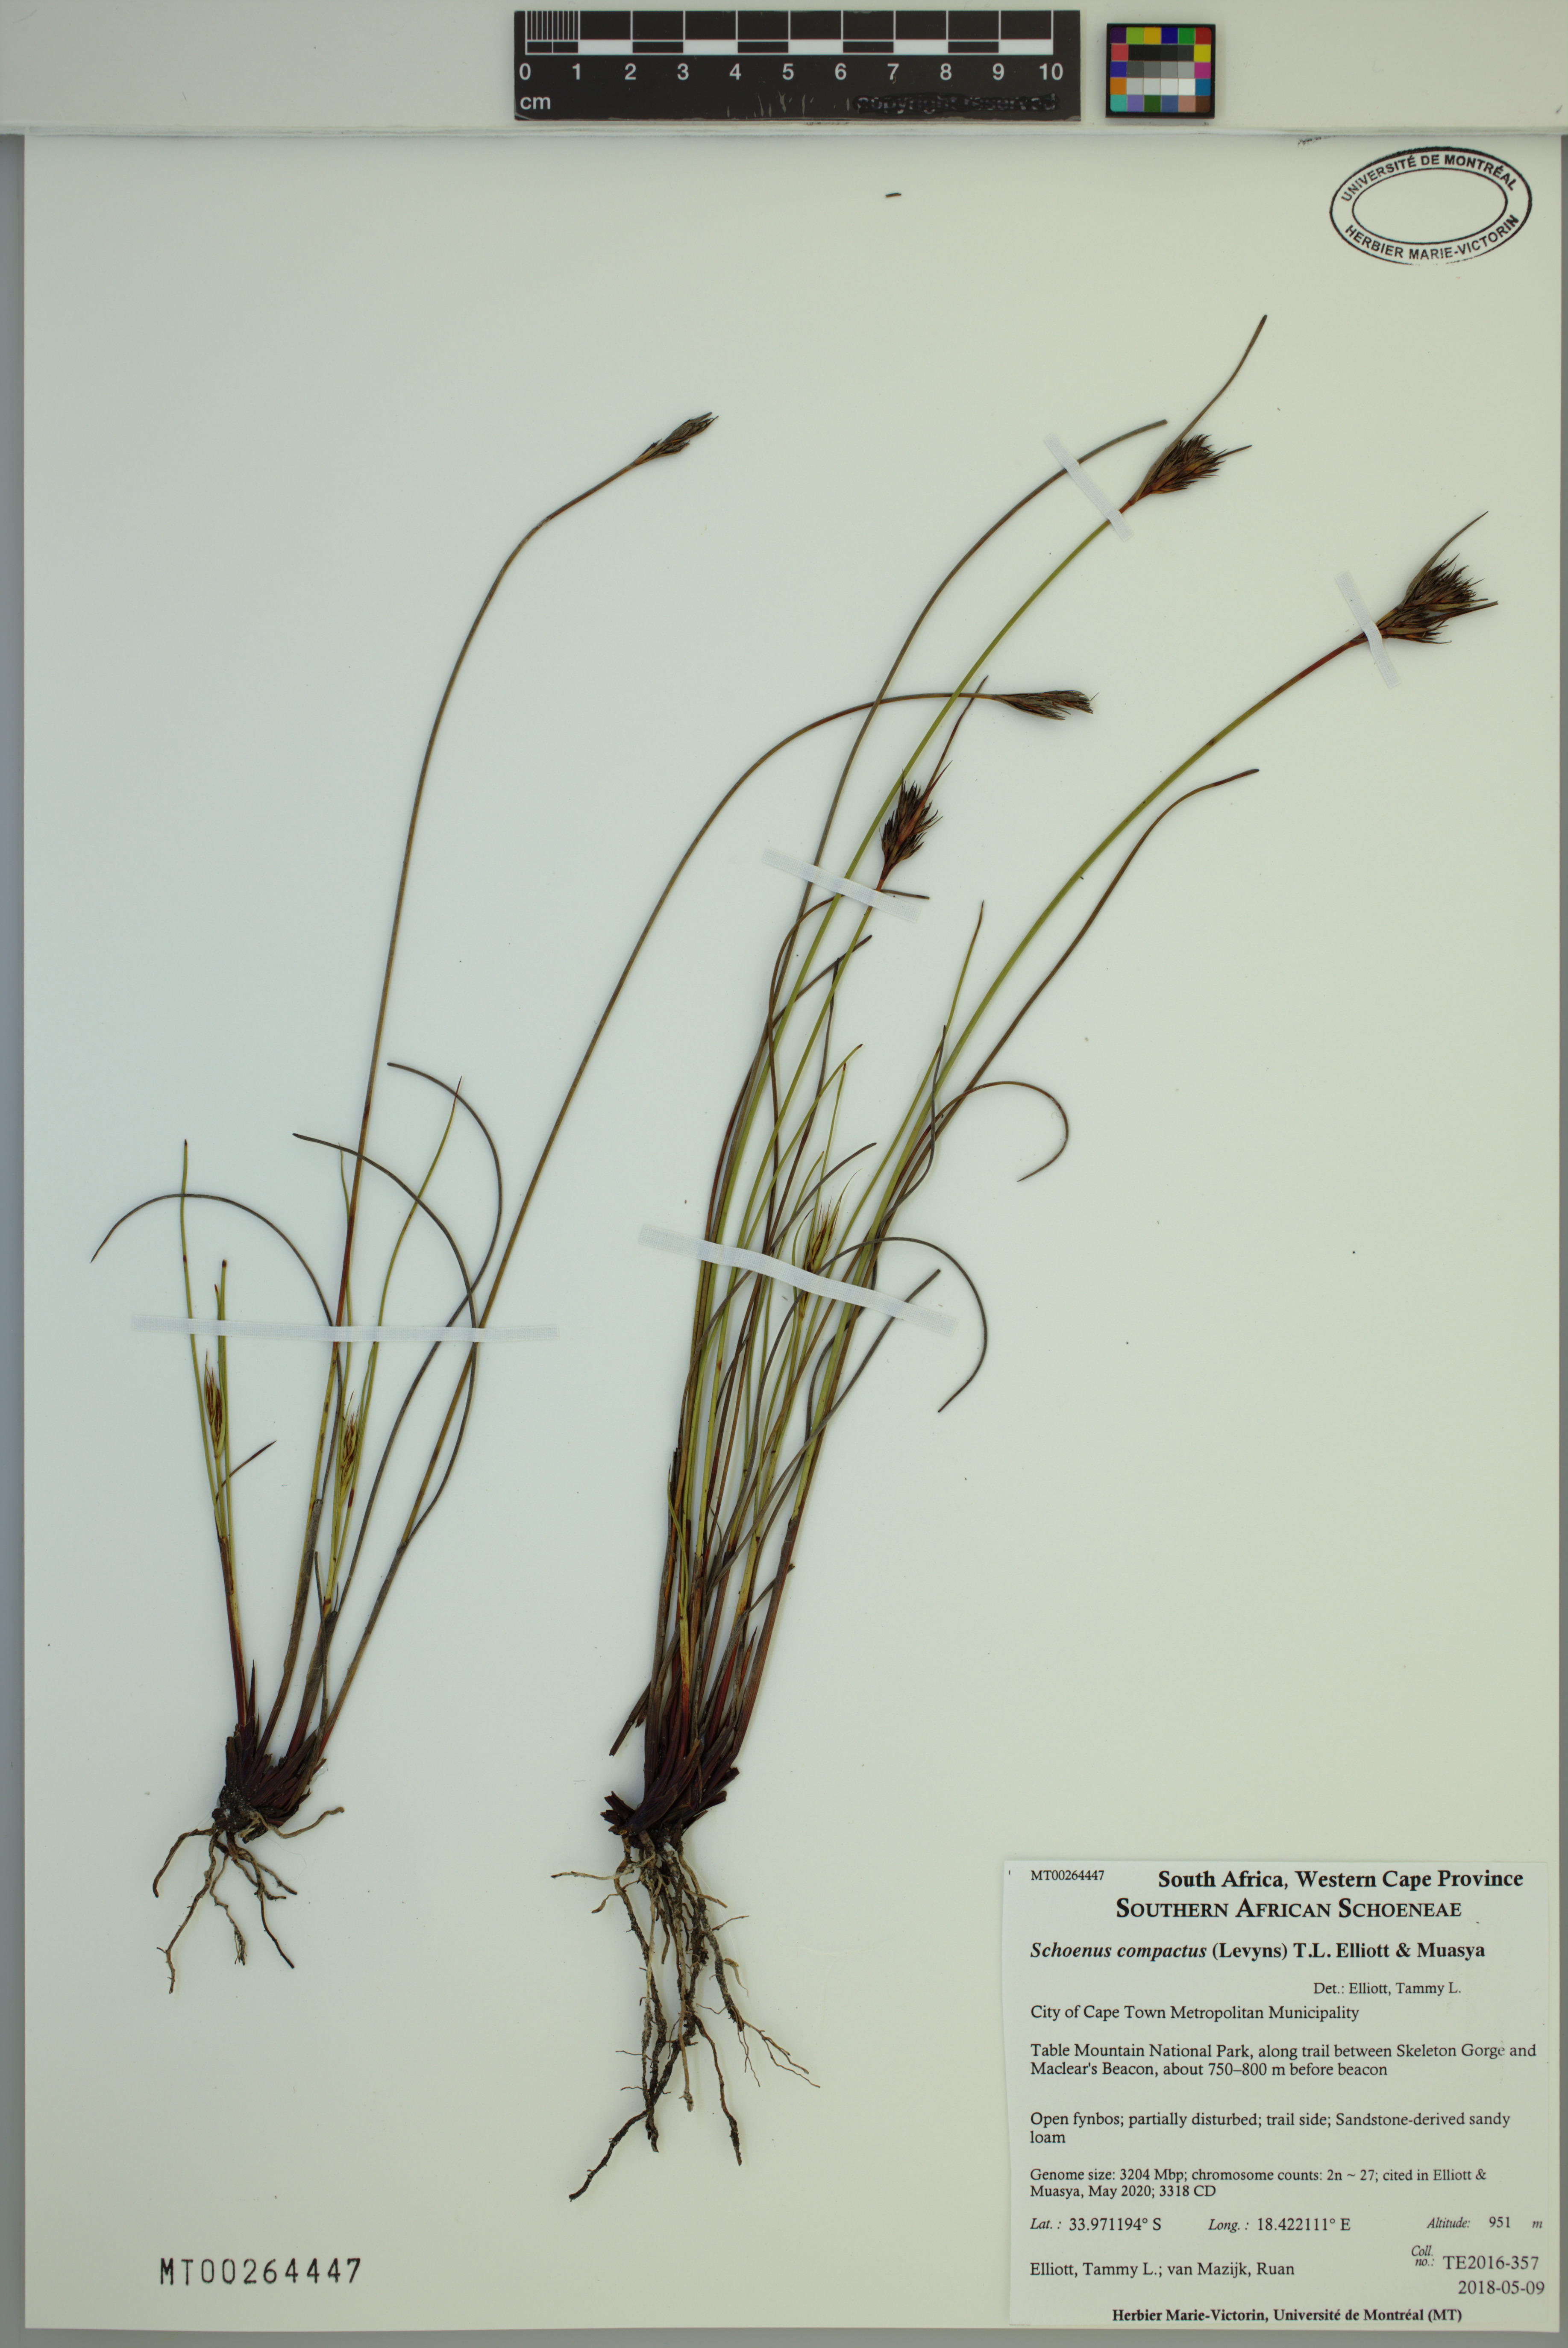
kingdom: Plantae
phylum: Tracheophyta
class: Liliopsida
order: Poales
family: Cyperaceae
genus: Schoenus
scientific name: Schoenus compactus
